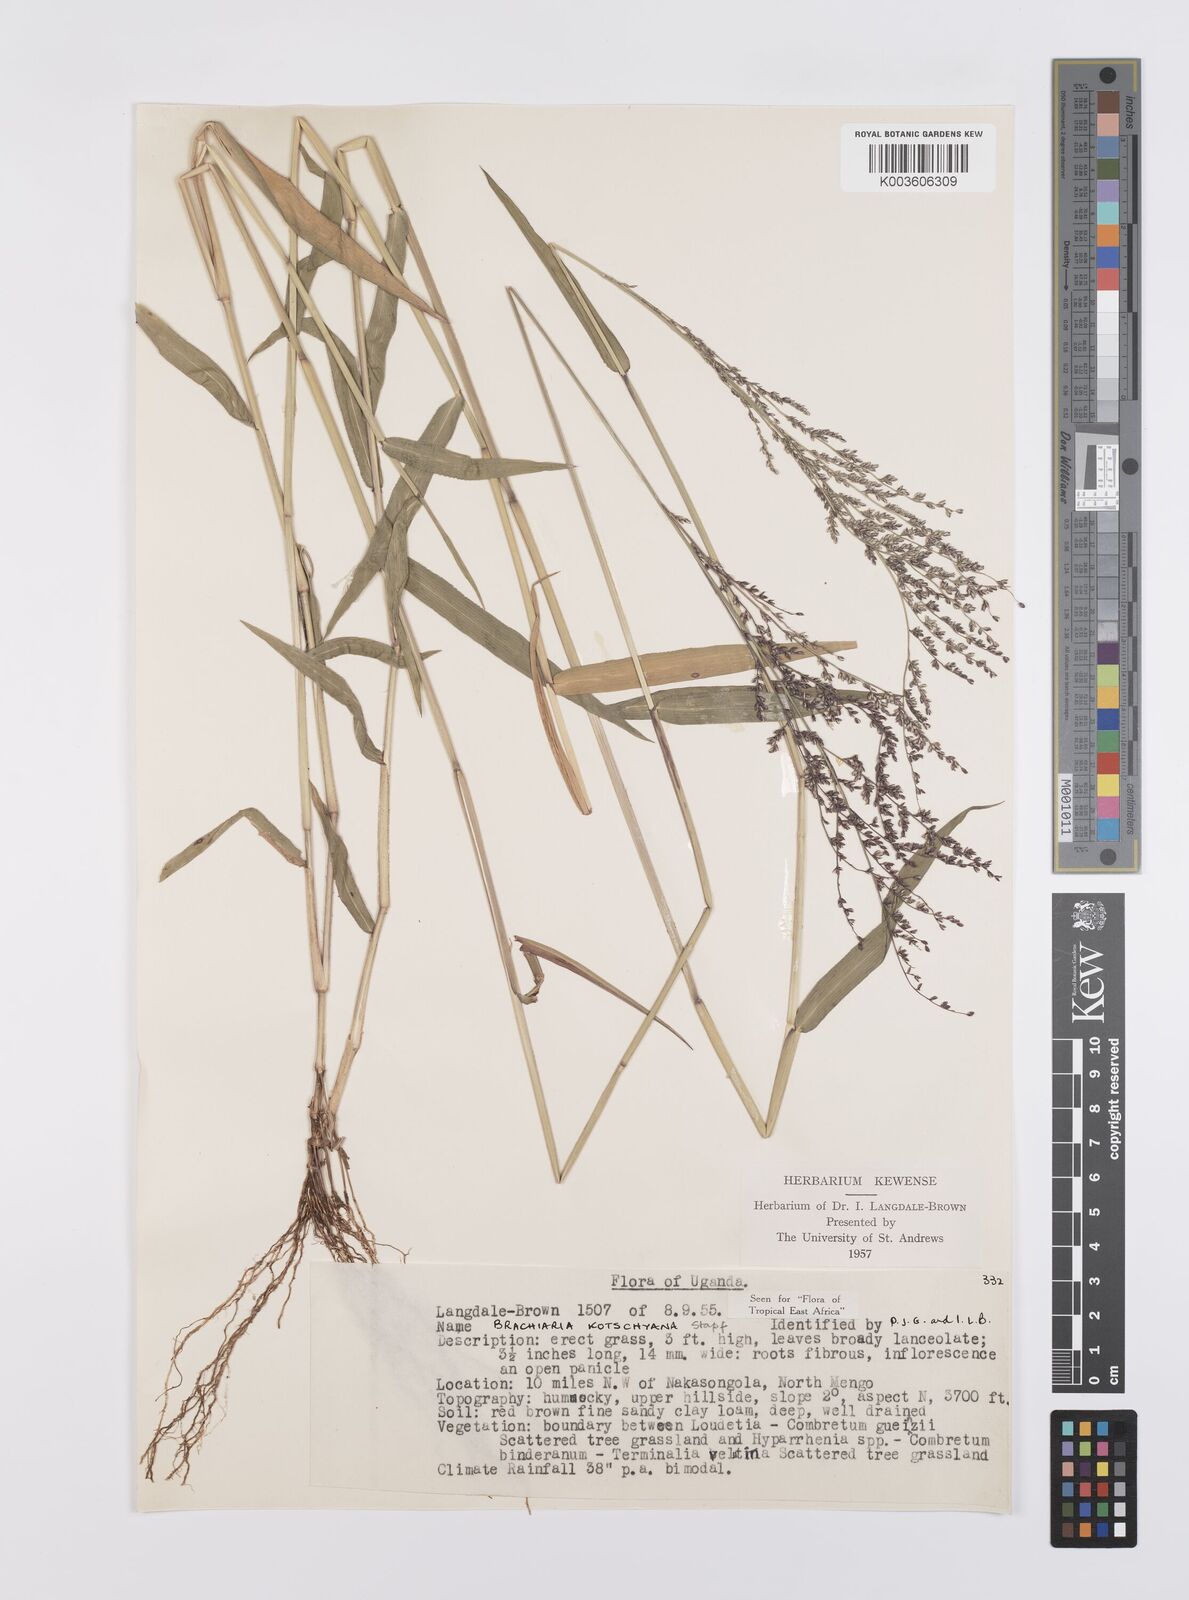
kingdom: Plantae
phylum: Tracheophyta
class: Liliopsida
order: Poales
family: Poaceae
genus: Urochloa
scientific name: Urochloa comata
